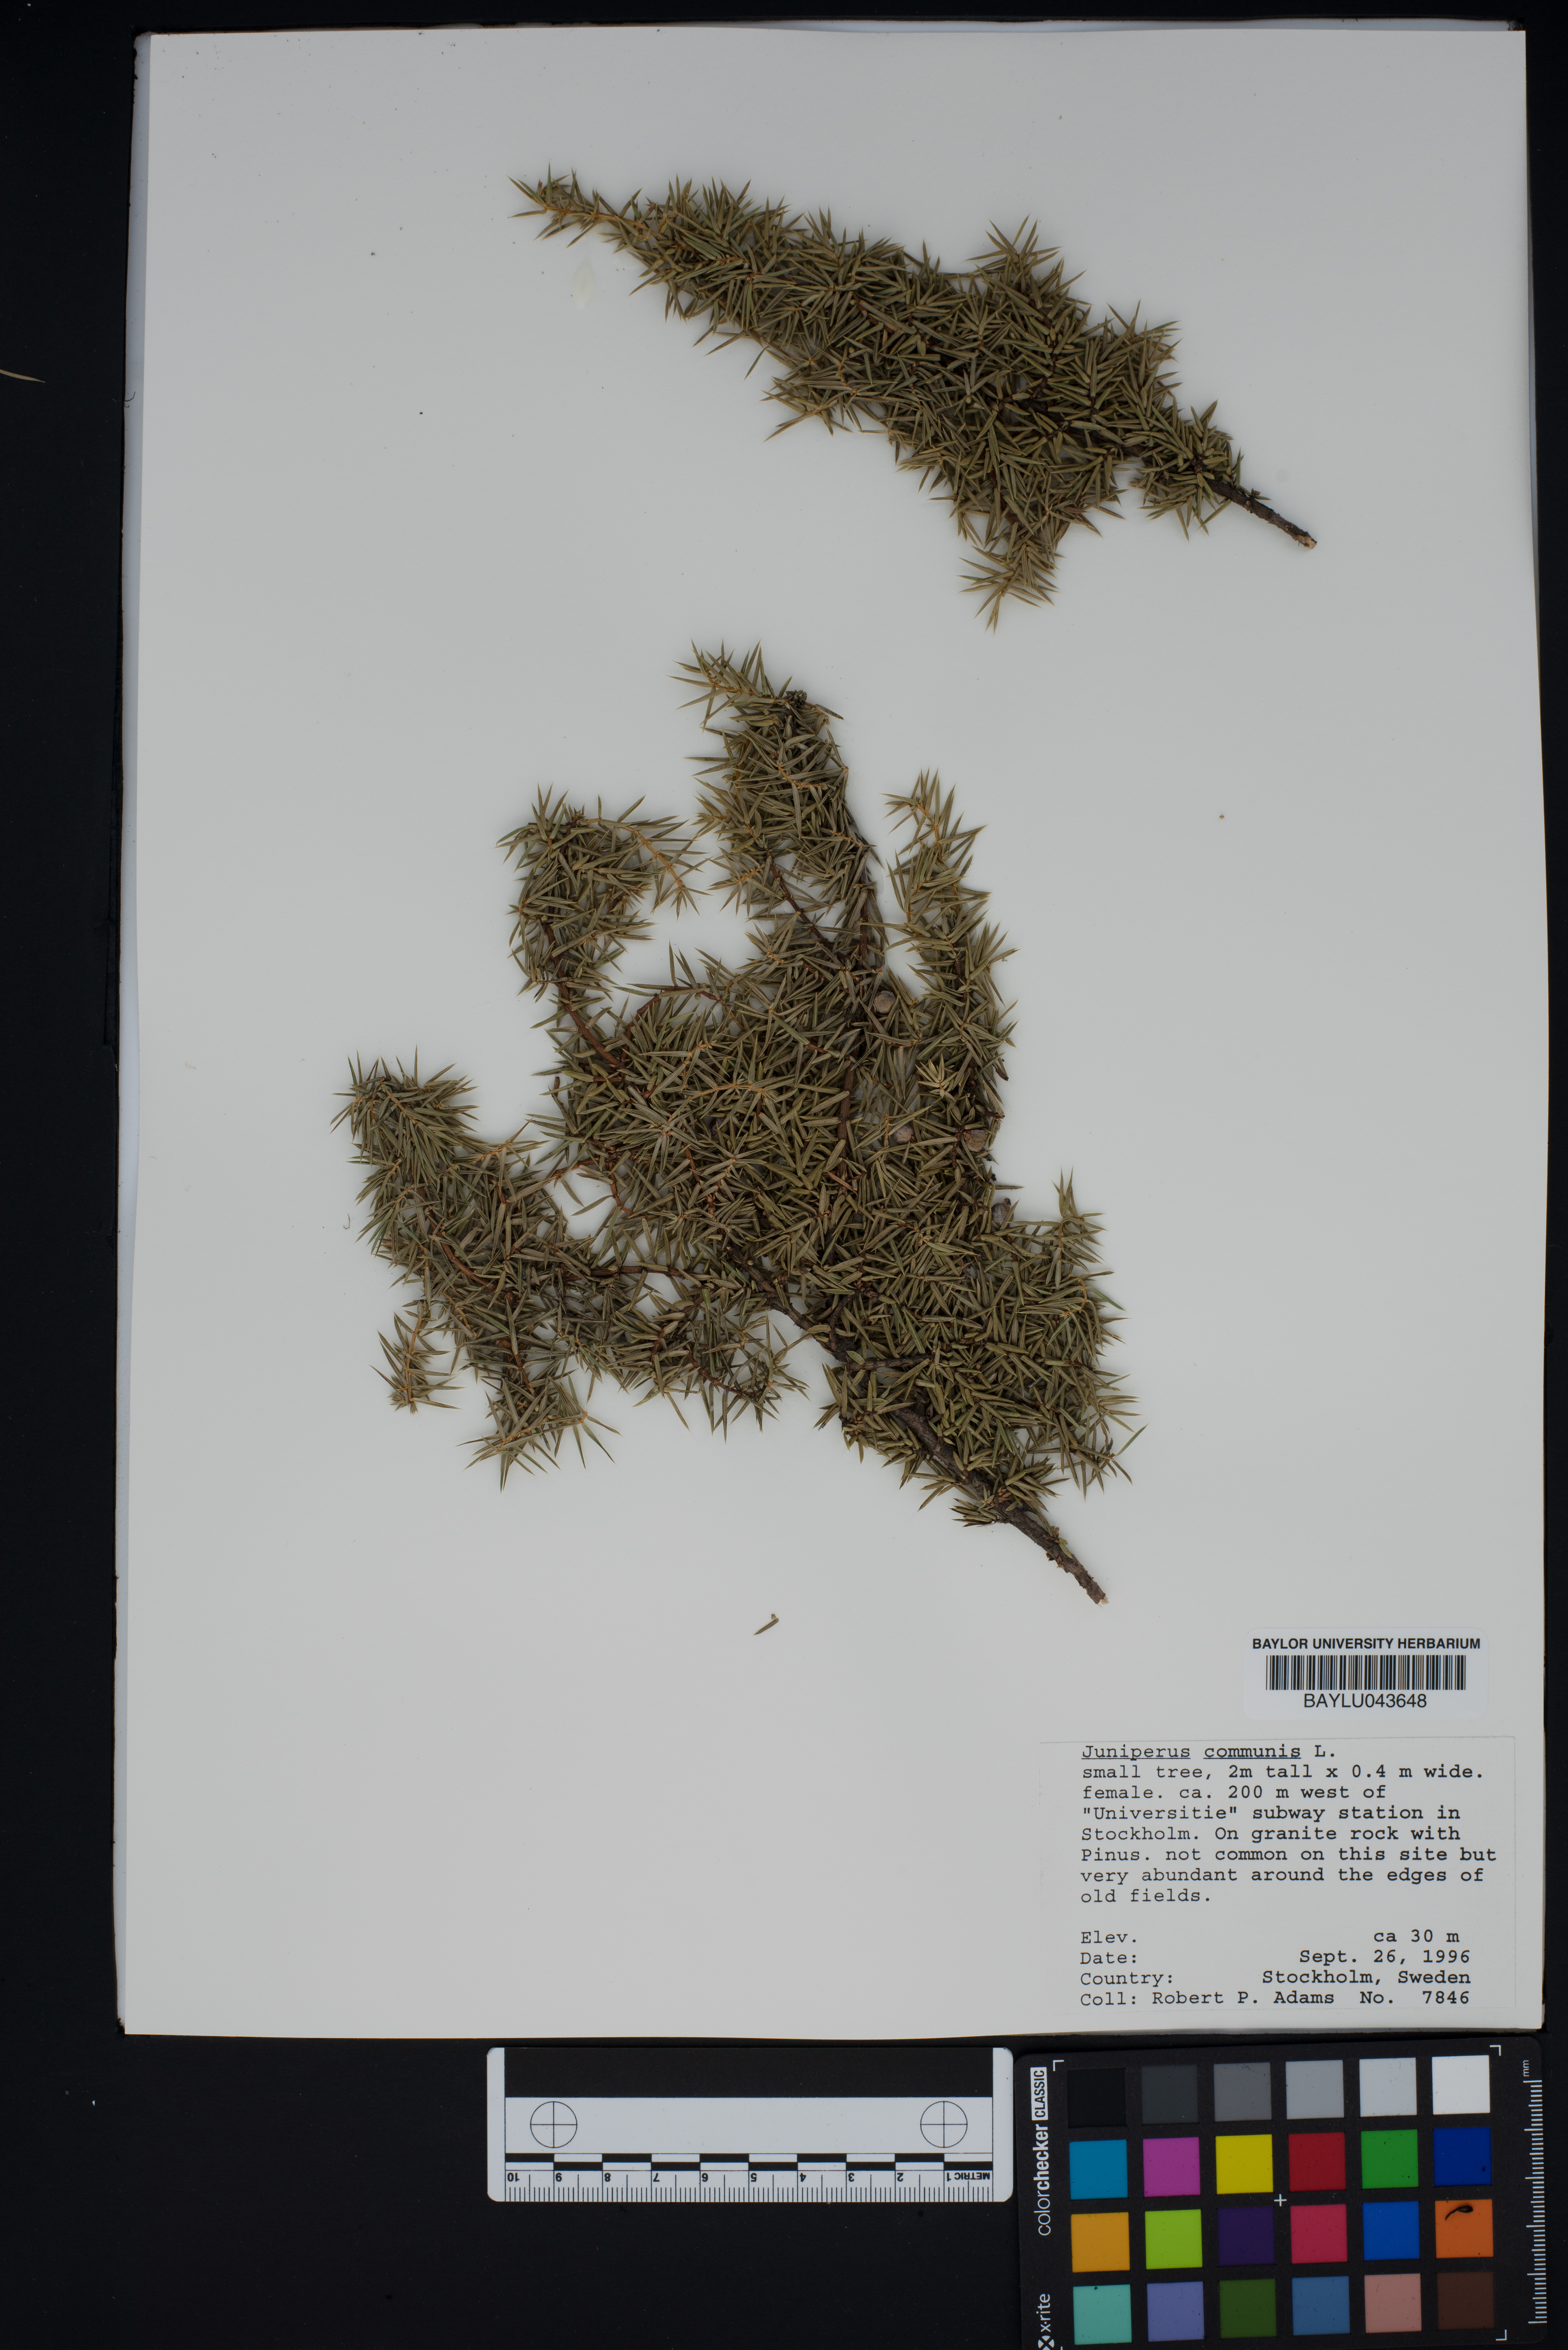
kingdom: Plantae
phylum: Tracheophyta
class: Pinopsida
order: Pinales
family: Cupressaceae
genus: Juniperus
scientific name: Juniperus communis
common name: Common juniper
